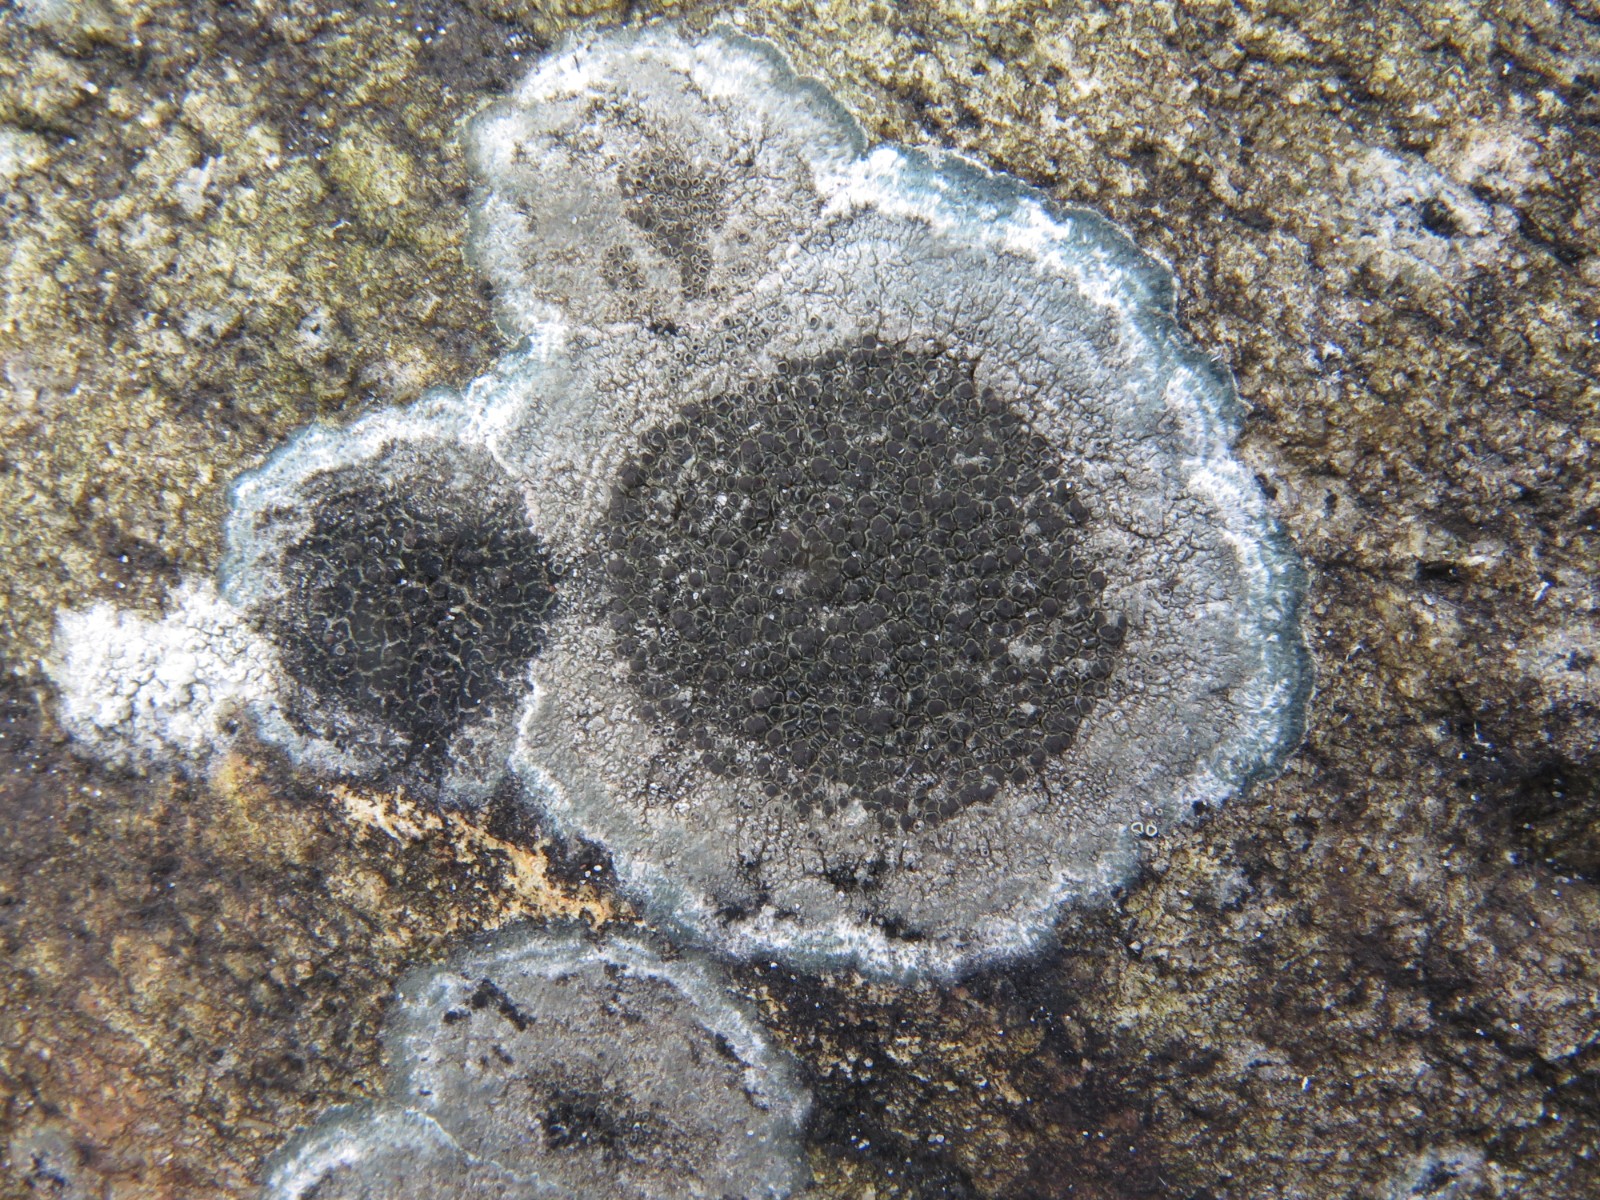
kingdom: Fungi
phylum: Ascomycota
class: Lecanoromycetes
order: Caliciales
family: Physciaceae
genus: Rinodina
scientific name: Rinodina
